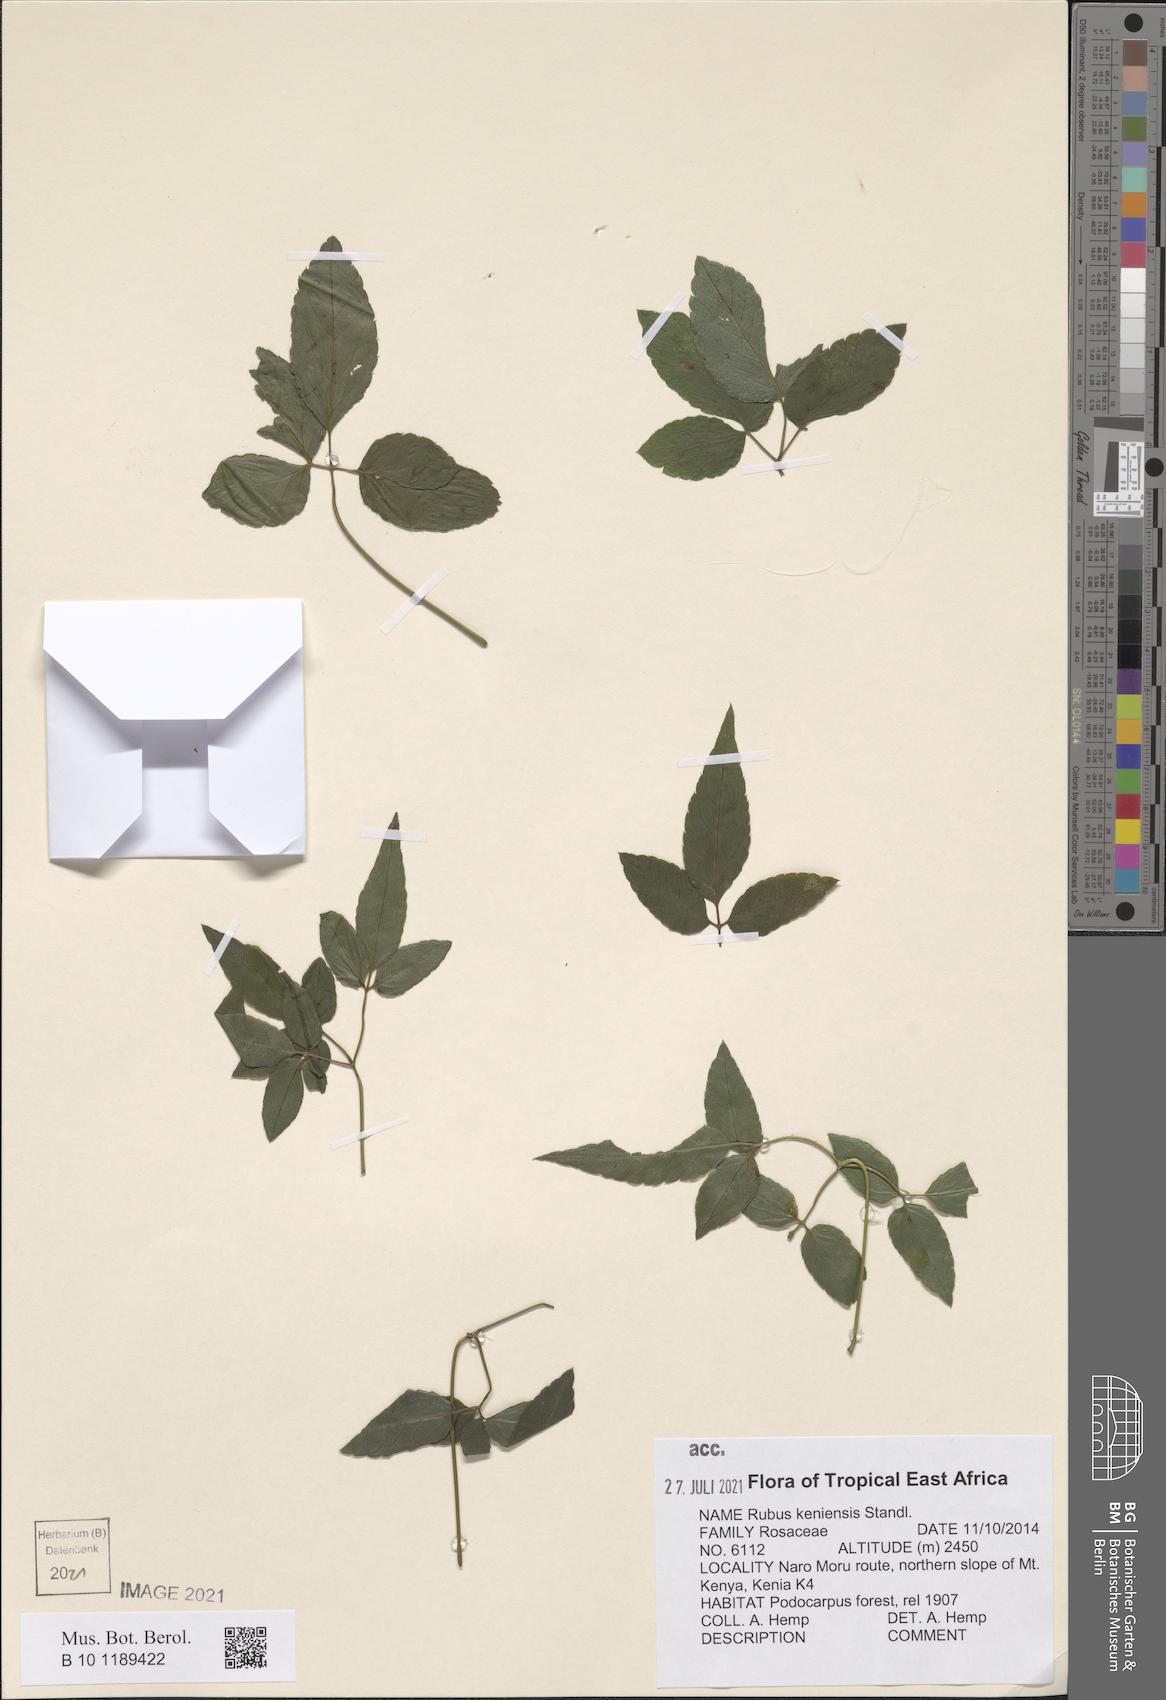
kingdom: Plantae
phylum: Tracheophyta
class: Magnoliopsida
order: Rosales
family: Rosaceae
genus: Rubus
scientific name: Rubus keniensis
